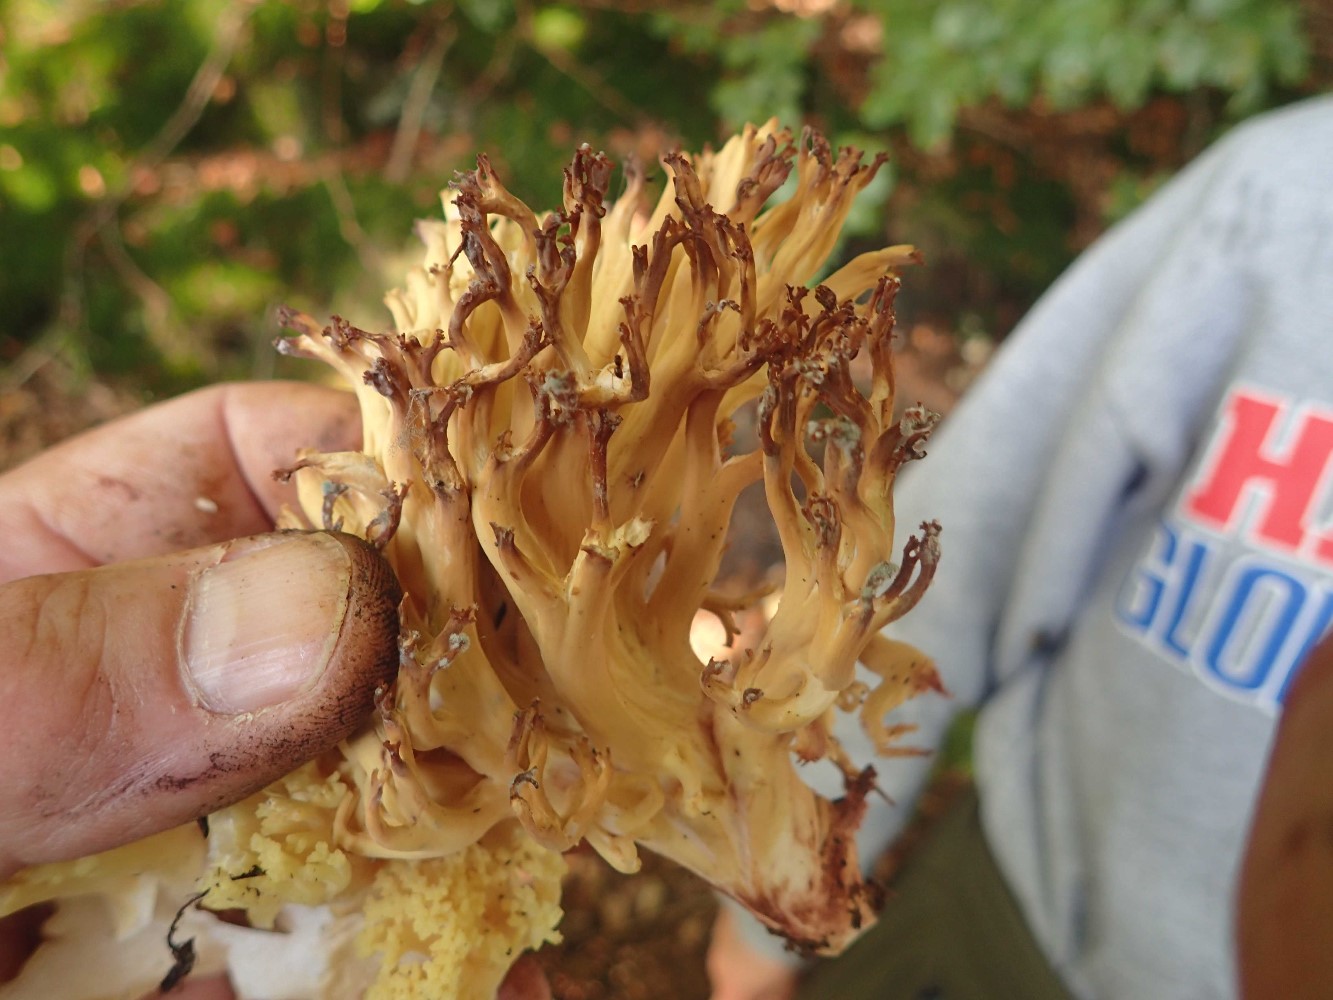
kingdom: Fungi
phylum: Basidiomycota
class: Agaricomycetes
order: Gomphales
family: Gomphaceae
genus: Ramaria
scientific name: Ramaria sanguinea
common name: blodplettet koralsvamp
